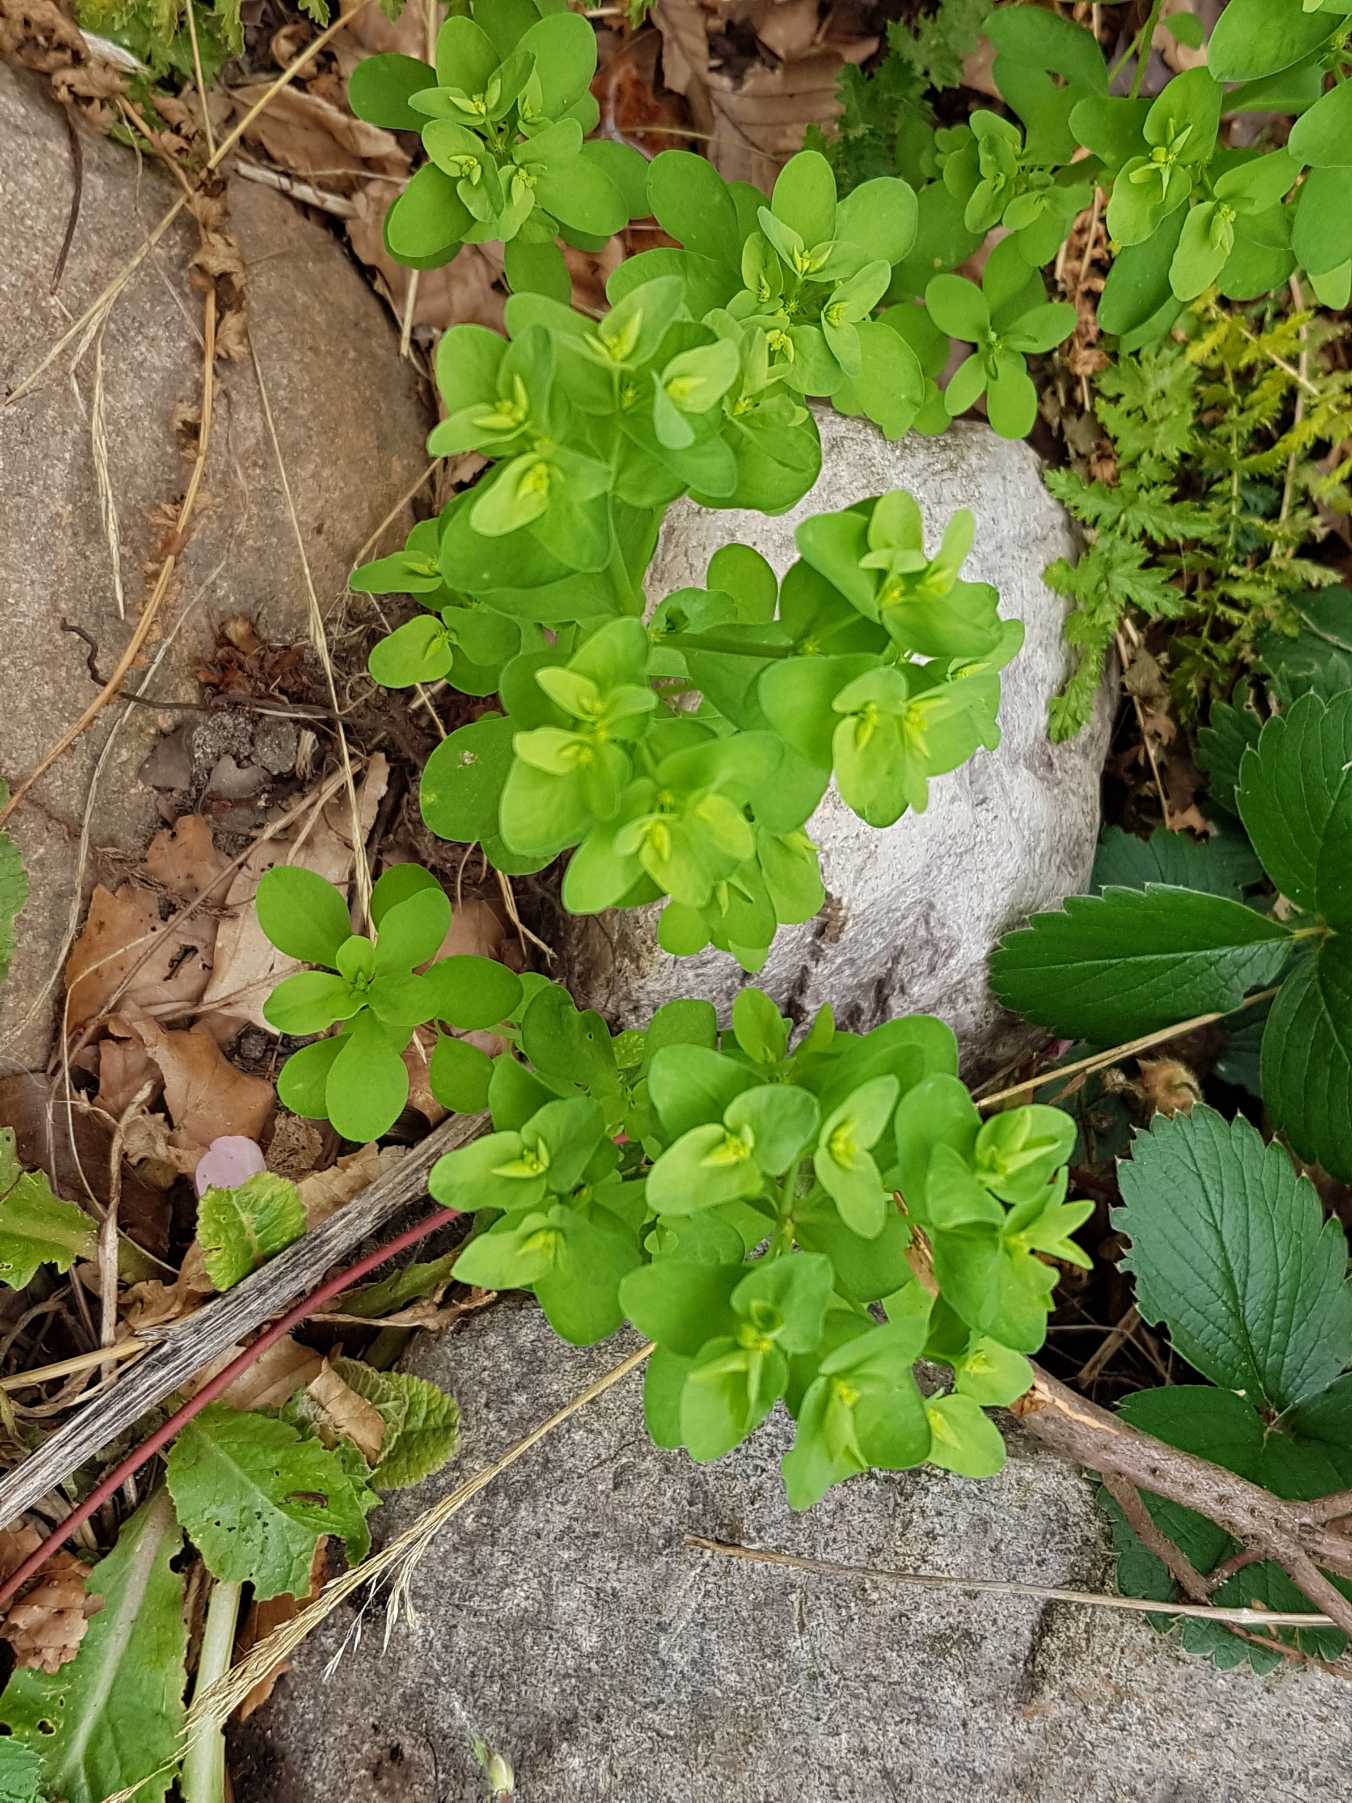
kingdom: Plantae
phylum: Tracheophyta
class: Magnoliopsida
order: Malpighiales
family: Euphorbiaceae
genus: Euphorbia
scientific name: Euphorbia peplus
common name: Gaffel-vortemælk
